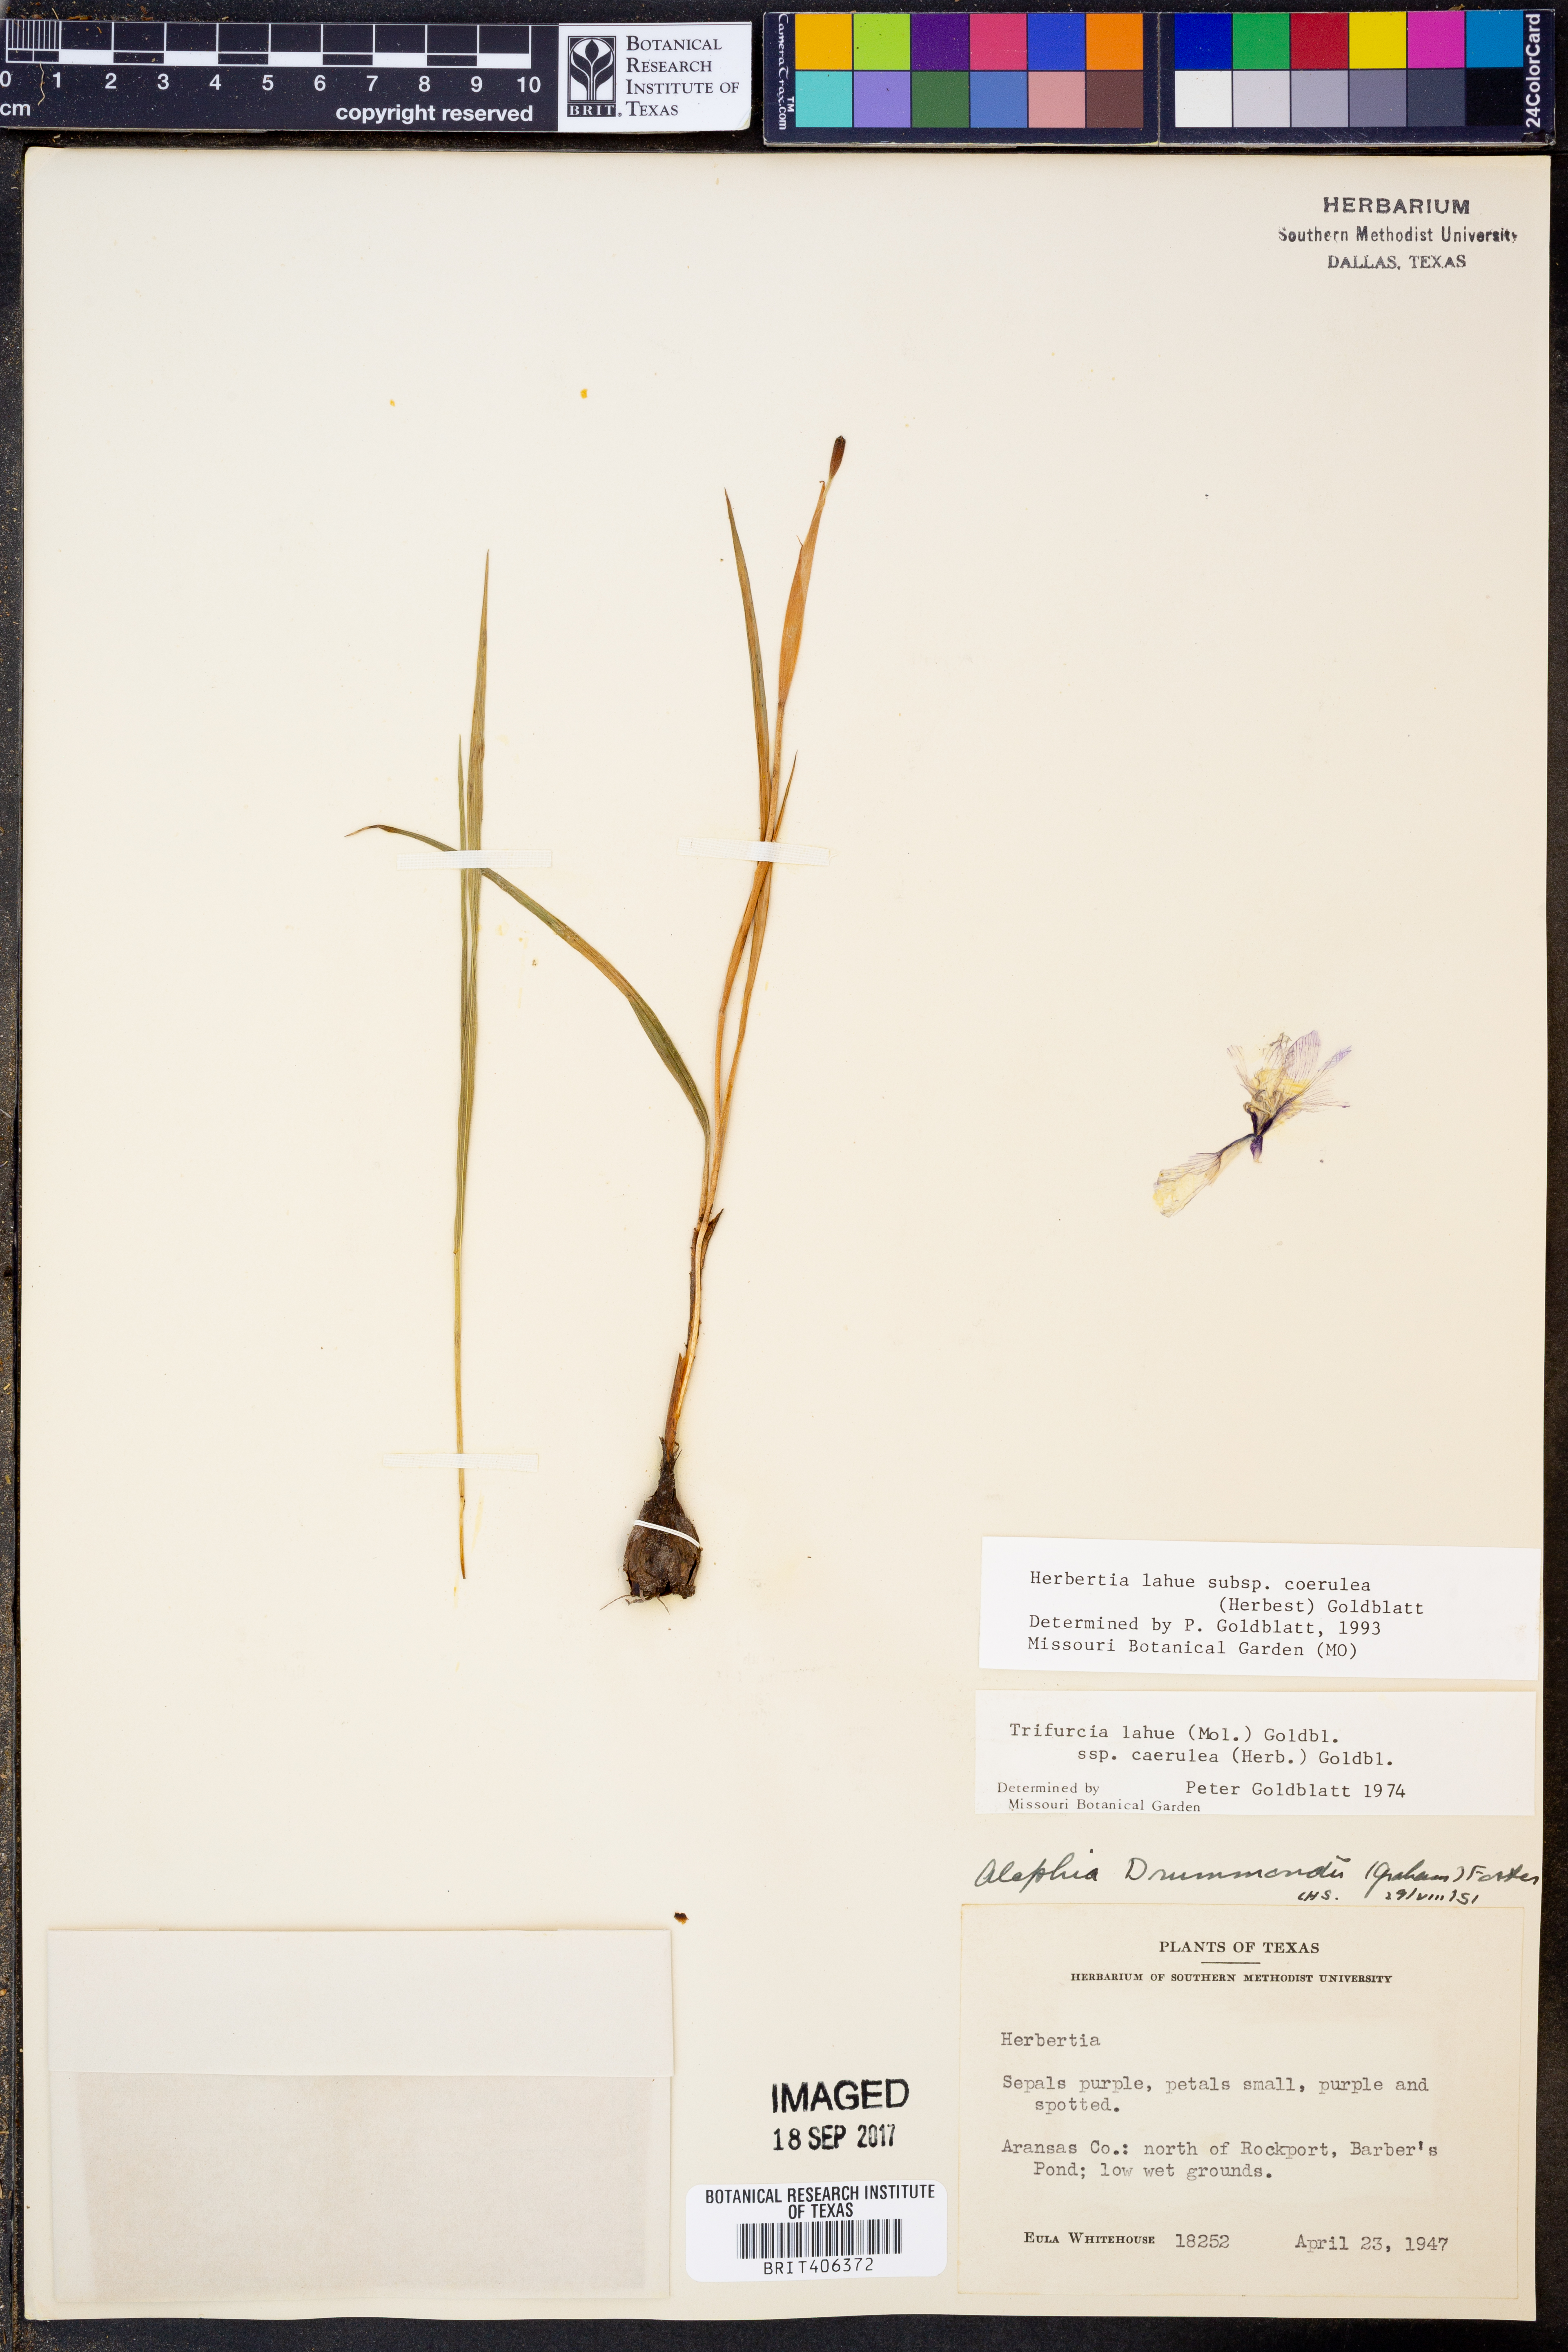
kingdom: Plantae
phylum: Tracheophyta
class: Liliopsida
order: Asparagales
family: Iridaceae
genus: Herbertia
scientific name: Herbertia lahue
